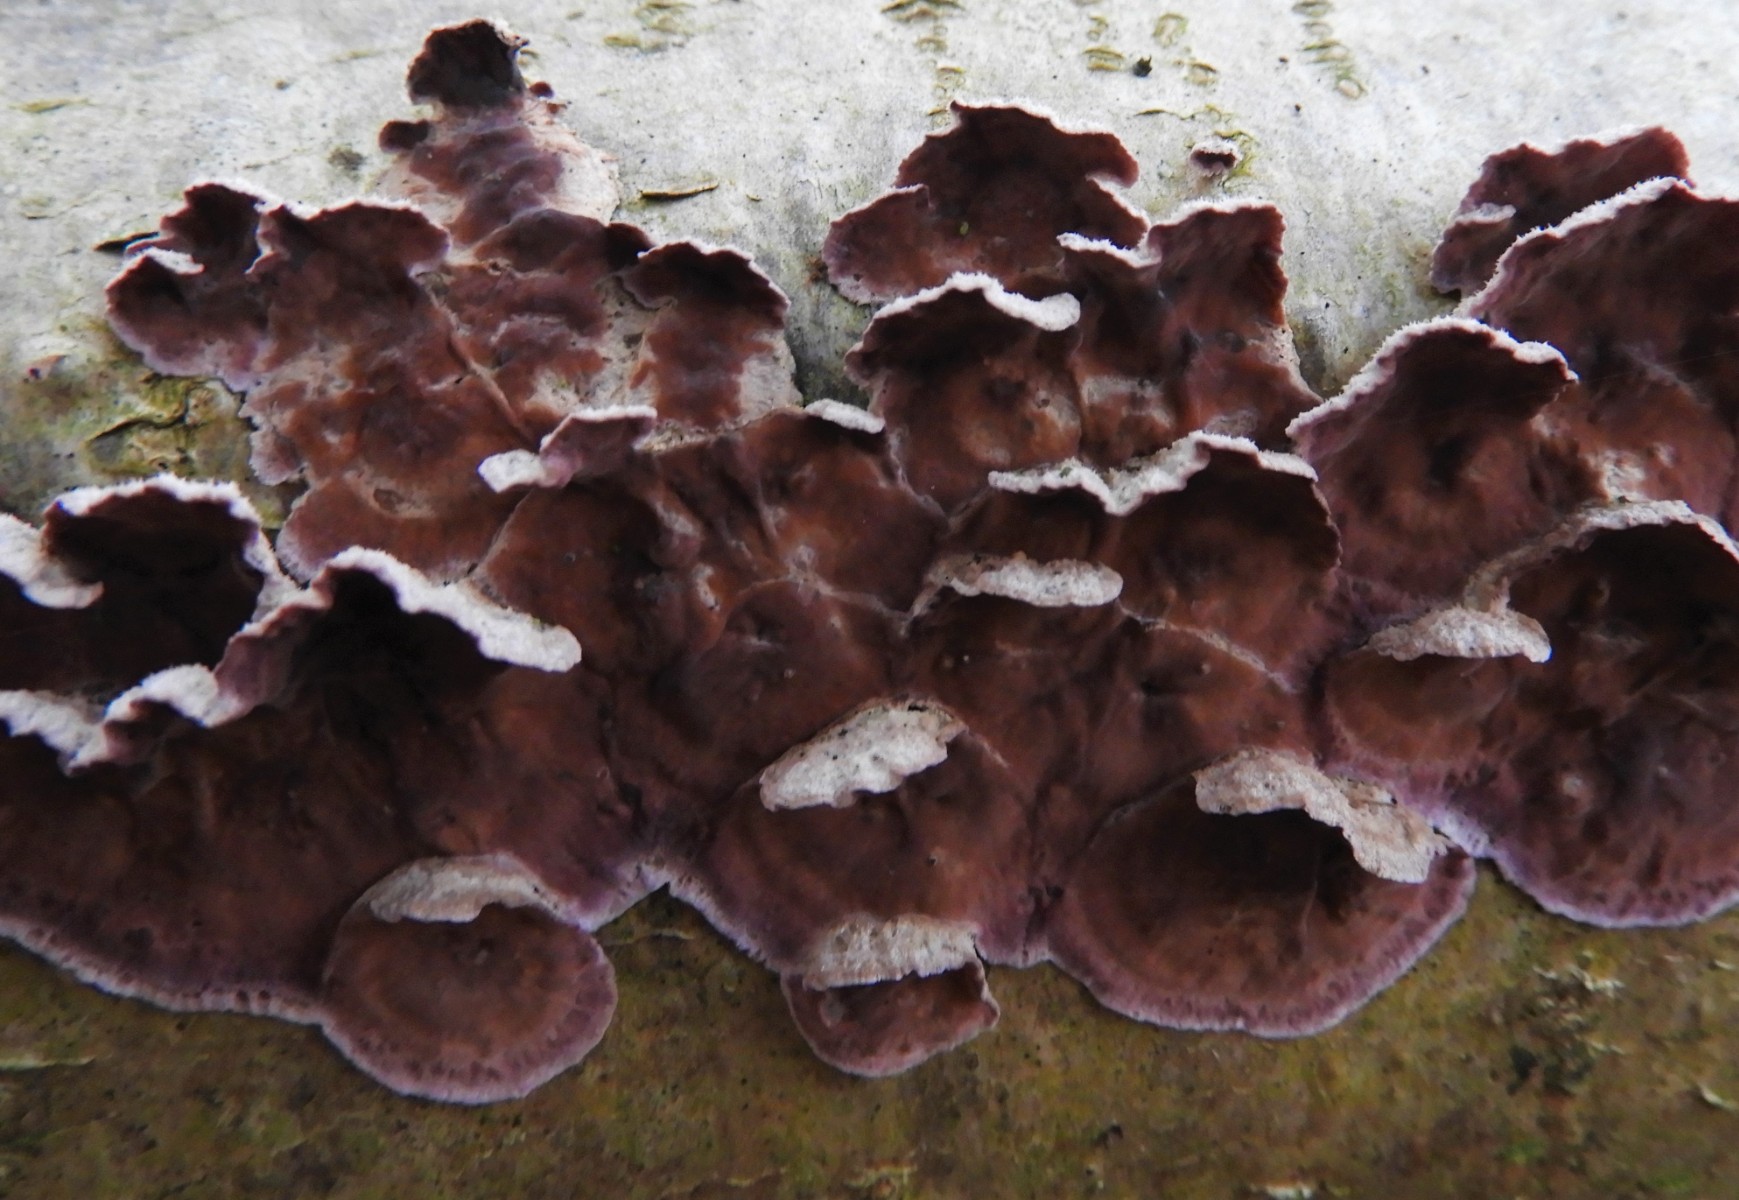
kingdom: Fungi
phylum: Basidiomycota
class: Agaricomycetes
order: Agaricales
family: Cyphellaceae
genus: Chondrostereum
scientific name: Chondrostereum purpureum
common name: purpurlædersvamp
